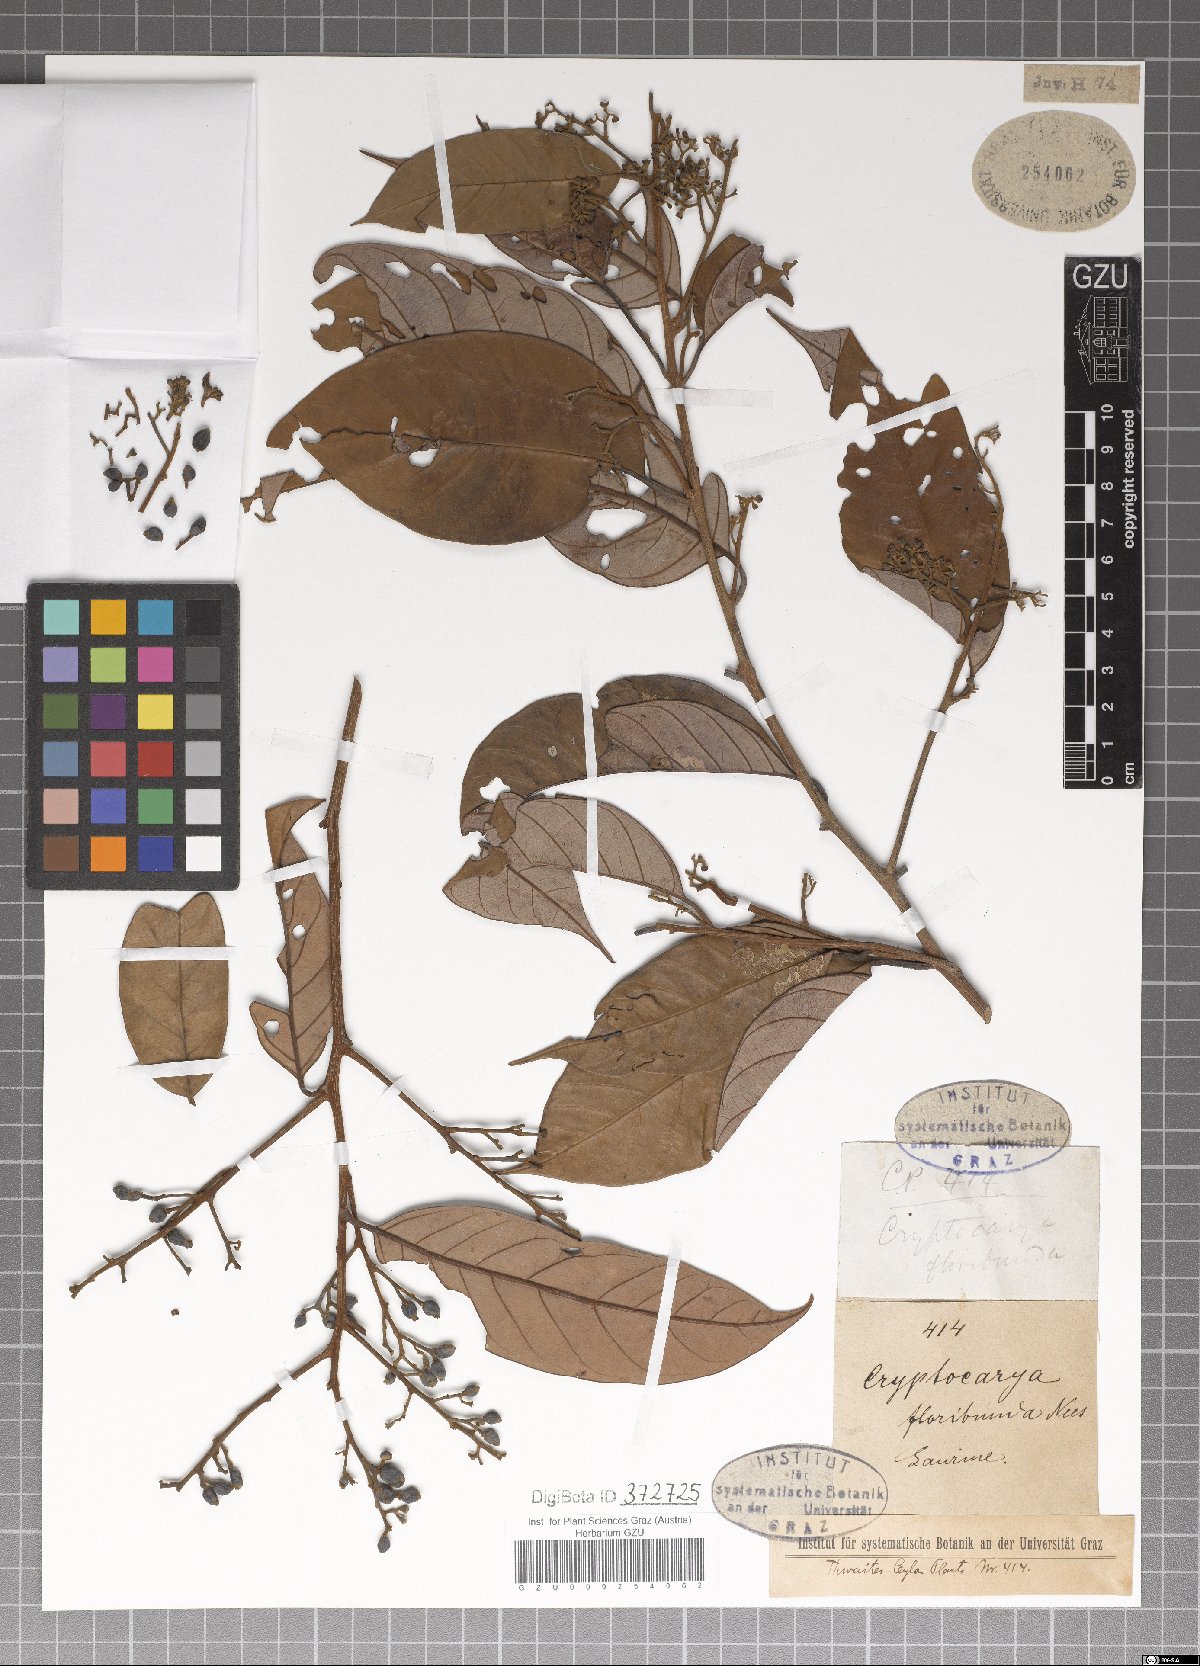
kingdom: Plantae
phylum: Tracheophyta
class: Magnoliopsida
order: Laurales
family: Lauraceae
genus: Cryptocarya
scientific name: Cryptocarya amygdalina
